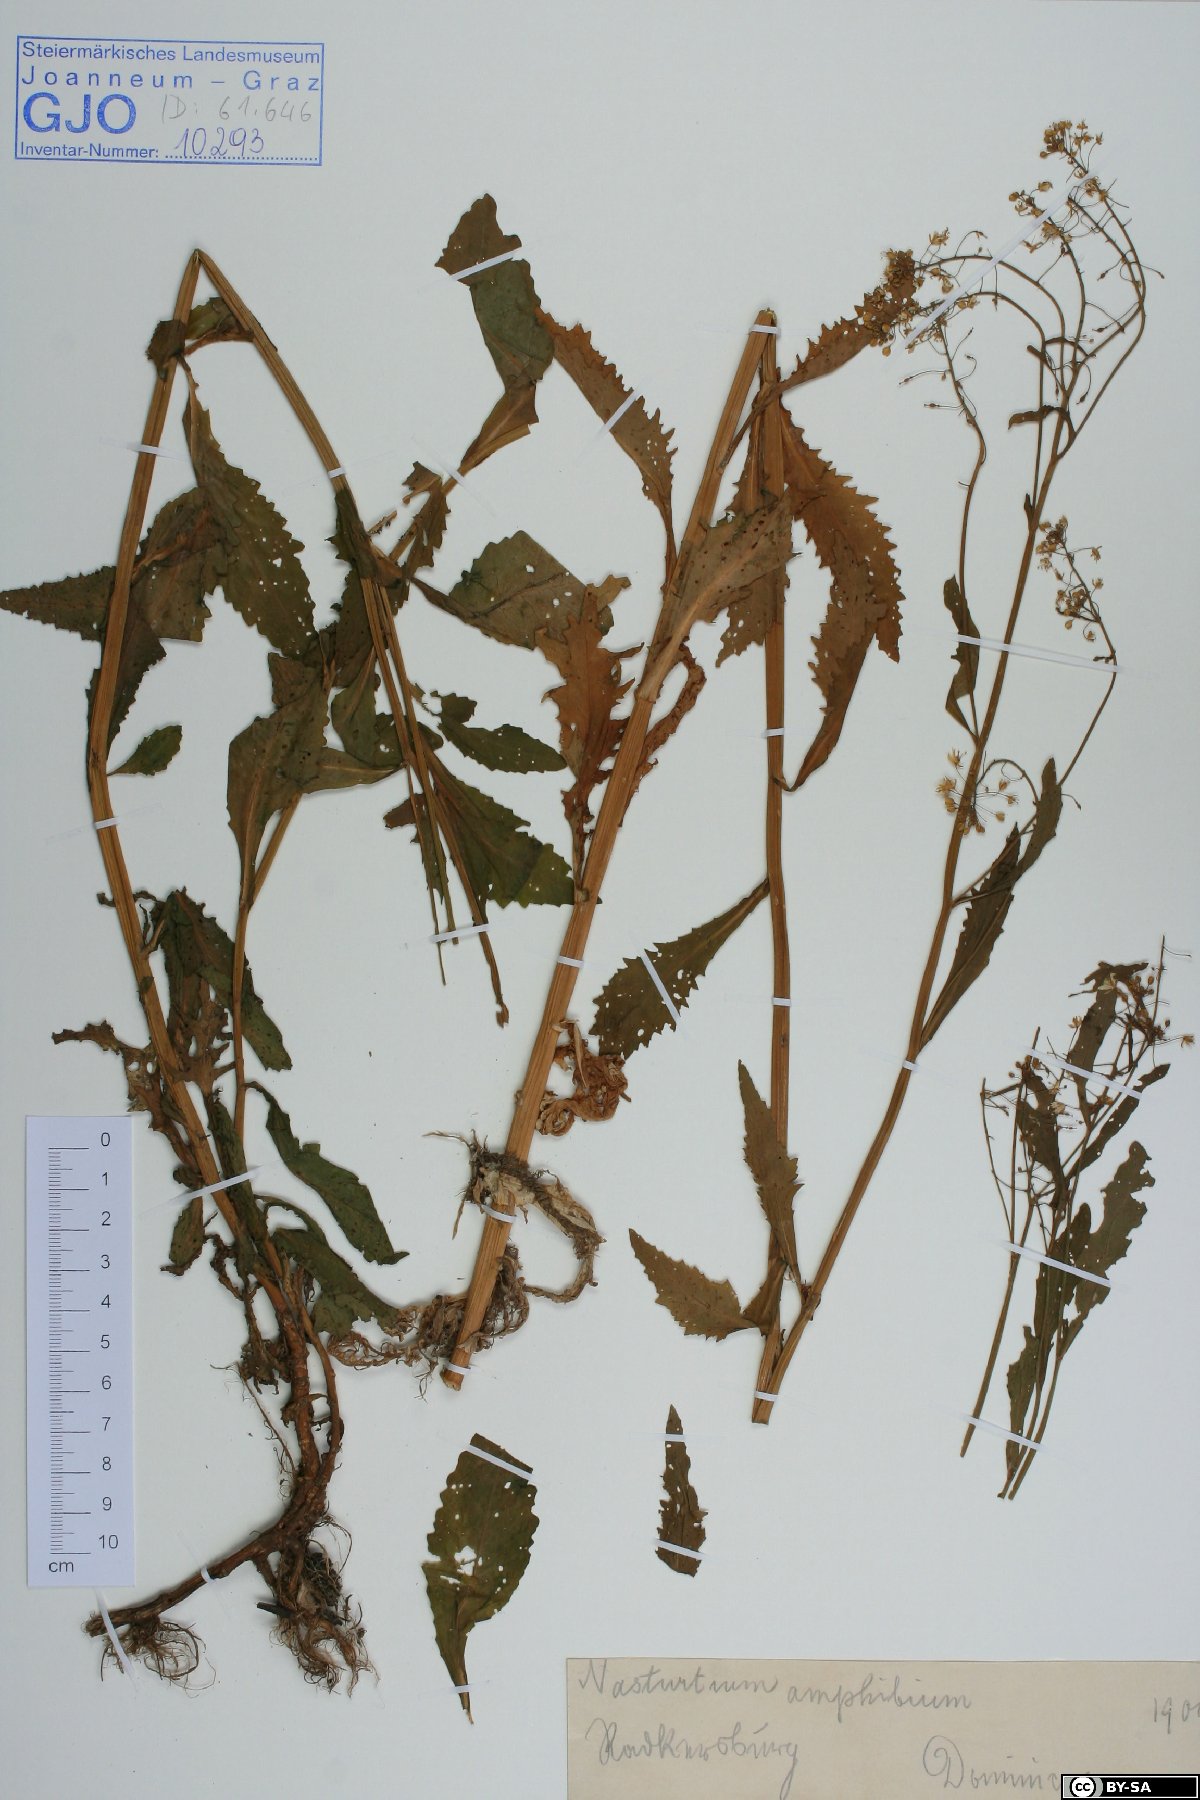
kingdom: Plantae
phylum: Tracheophyta
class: Magnoliopsida
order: Brassicales
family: Brassicaceae
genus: Rorippa
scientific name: Rorippa amphibia
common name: Great yellow-cress
